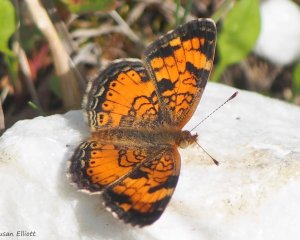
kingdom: Animalia
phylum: Arthropoda
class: Insecta
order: Lepidoptera
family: Nymphalidae
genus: Phyciodes
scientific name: Phyciodes
